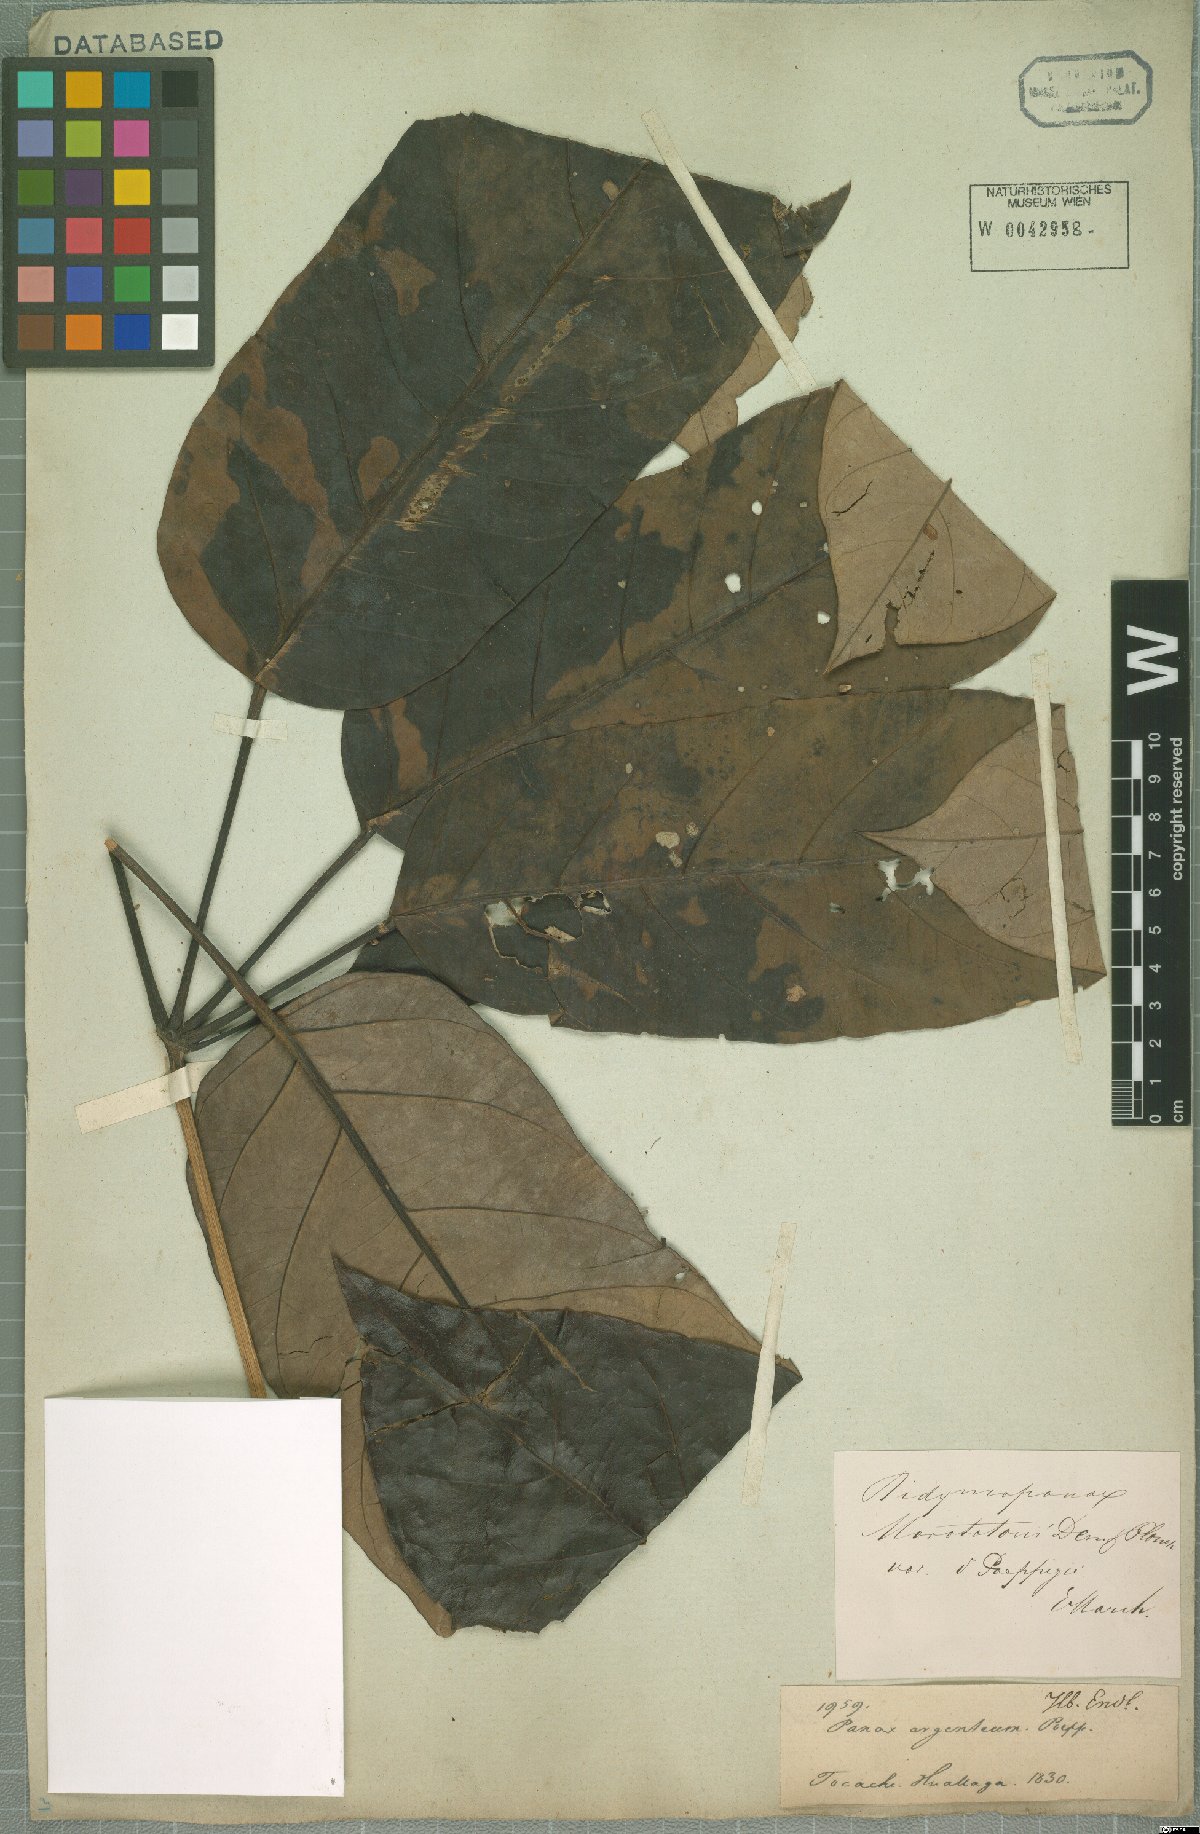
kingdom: Plantae
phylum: Tracheophyta
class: Magnoliopsida
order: Apiales
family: Araliaceae
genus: Didymopanax
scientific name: Didymopanax morototoni
